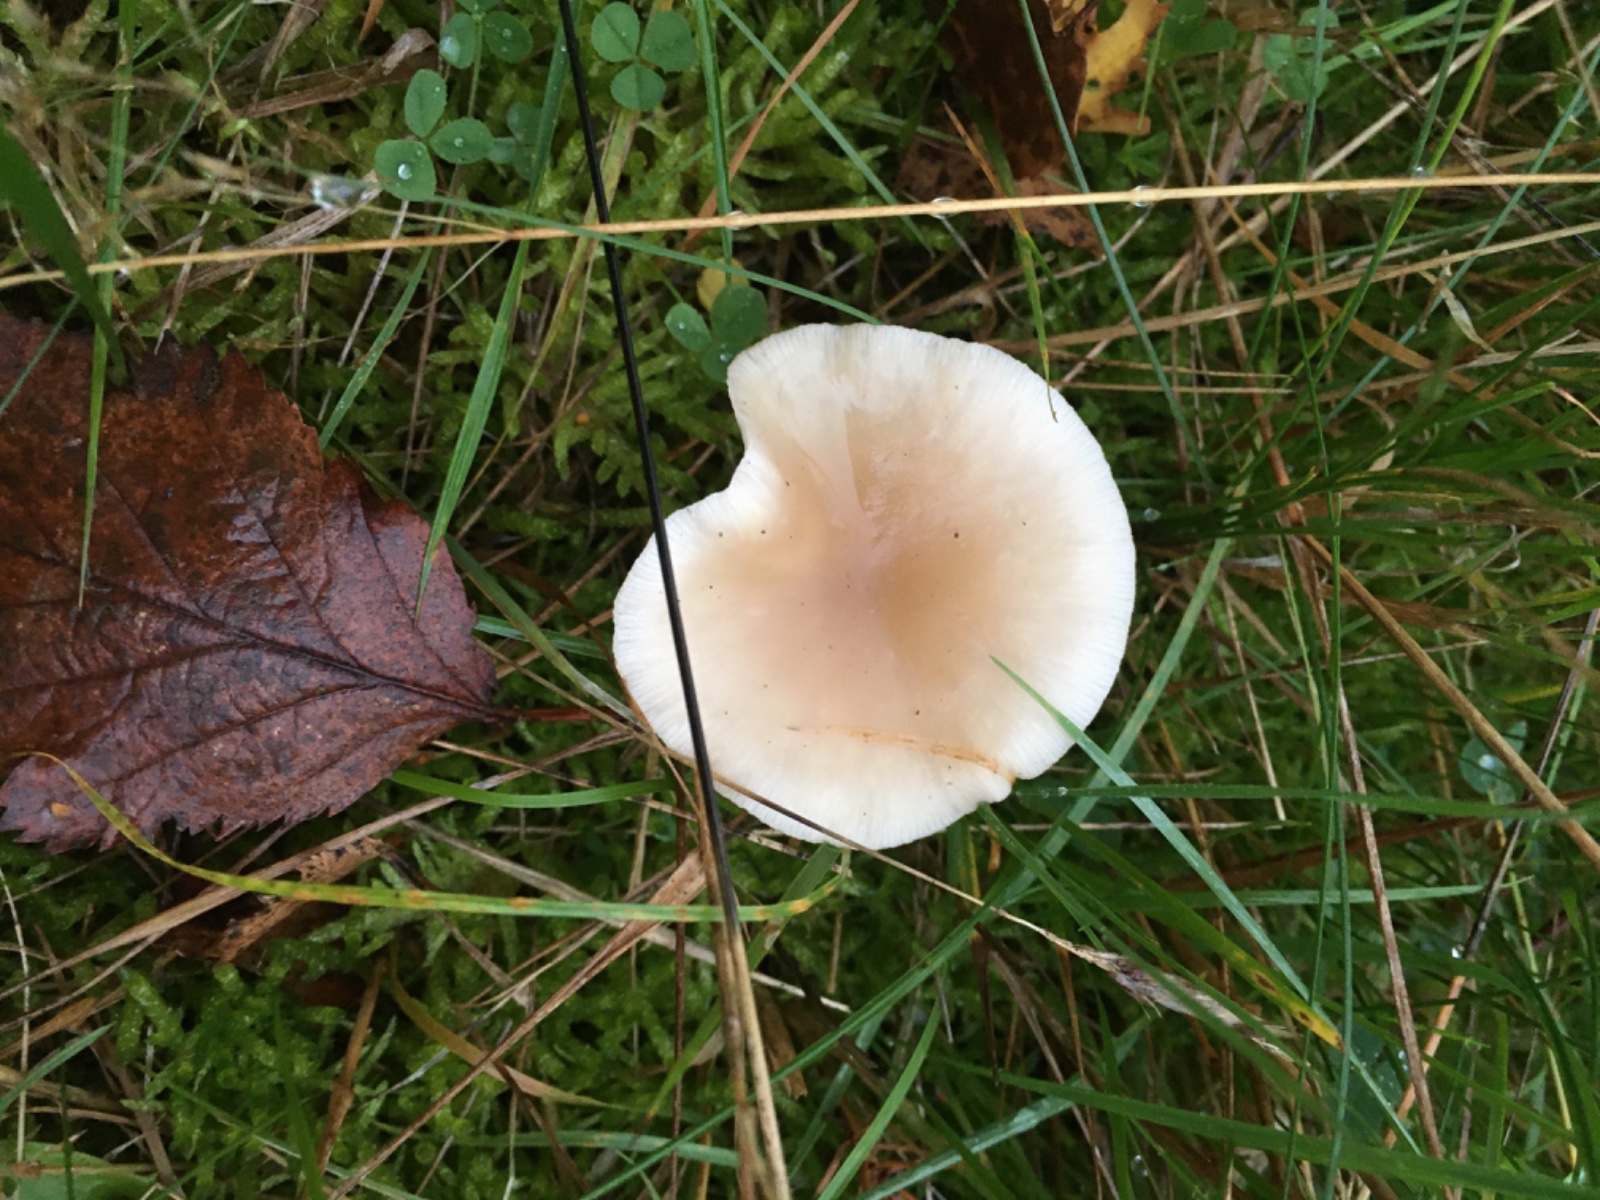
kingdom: Fungi
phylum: Basidiomycota
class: Agaricomycetes
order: Agaricales
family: Tricholomataceae
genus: Clitocybe
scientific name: Clitocybe fragrans
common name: vellugtende tragthat
